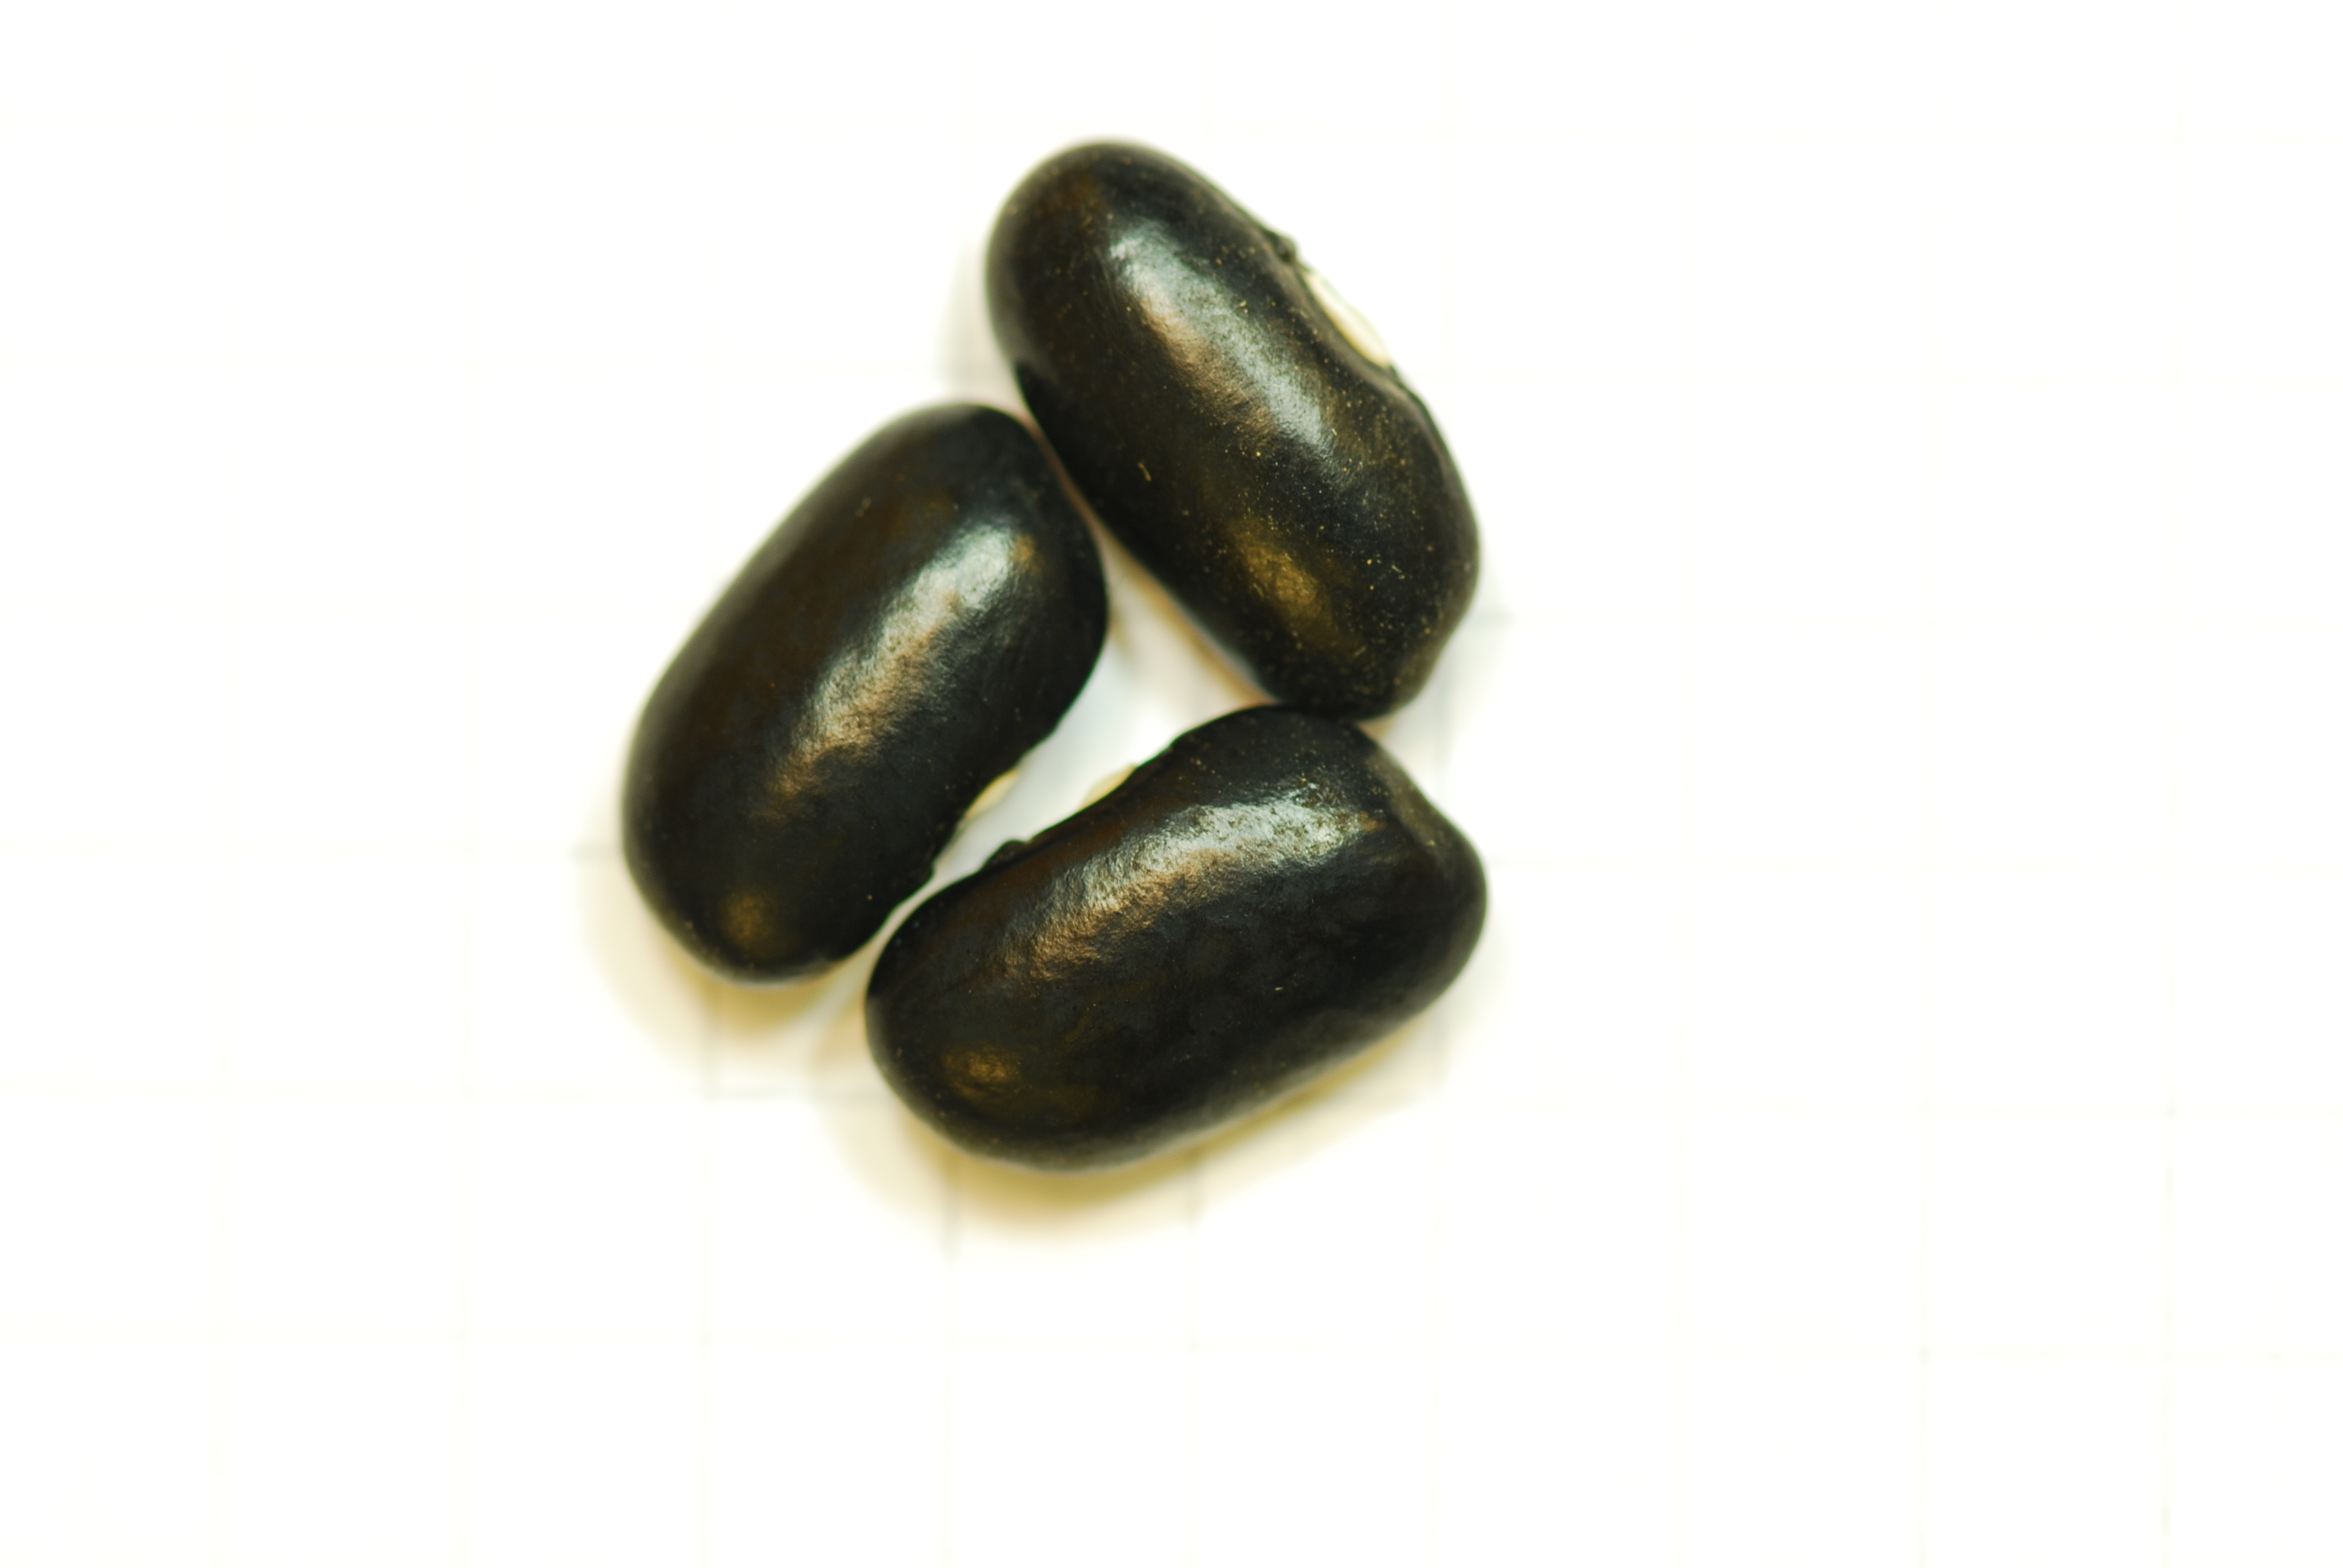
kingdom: Plantae
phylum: Tracheophyta
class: Magnoliopsida
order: Fabales
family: Fabaceae
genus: Phaseolus
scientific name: Phaseolus vulgaris
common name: Bean
